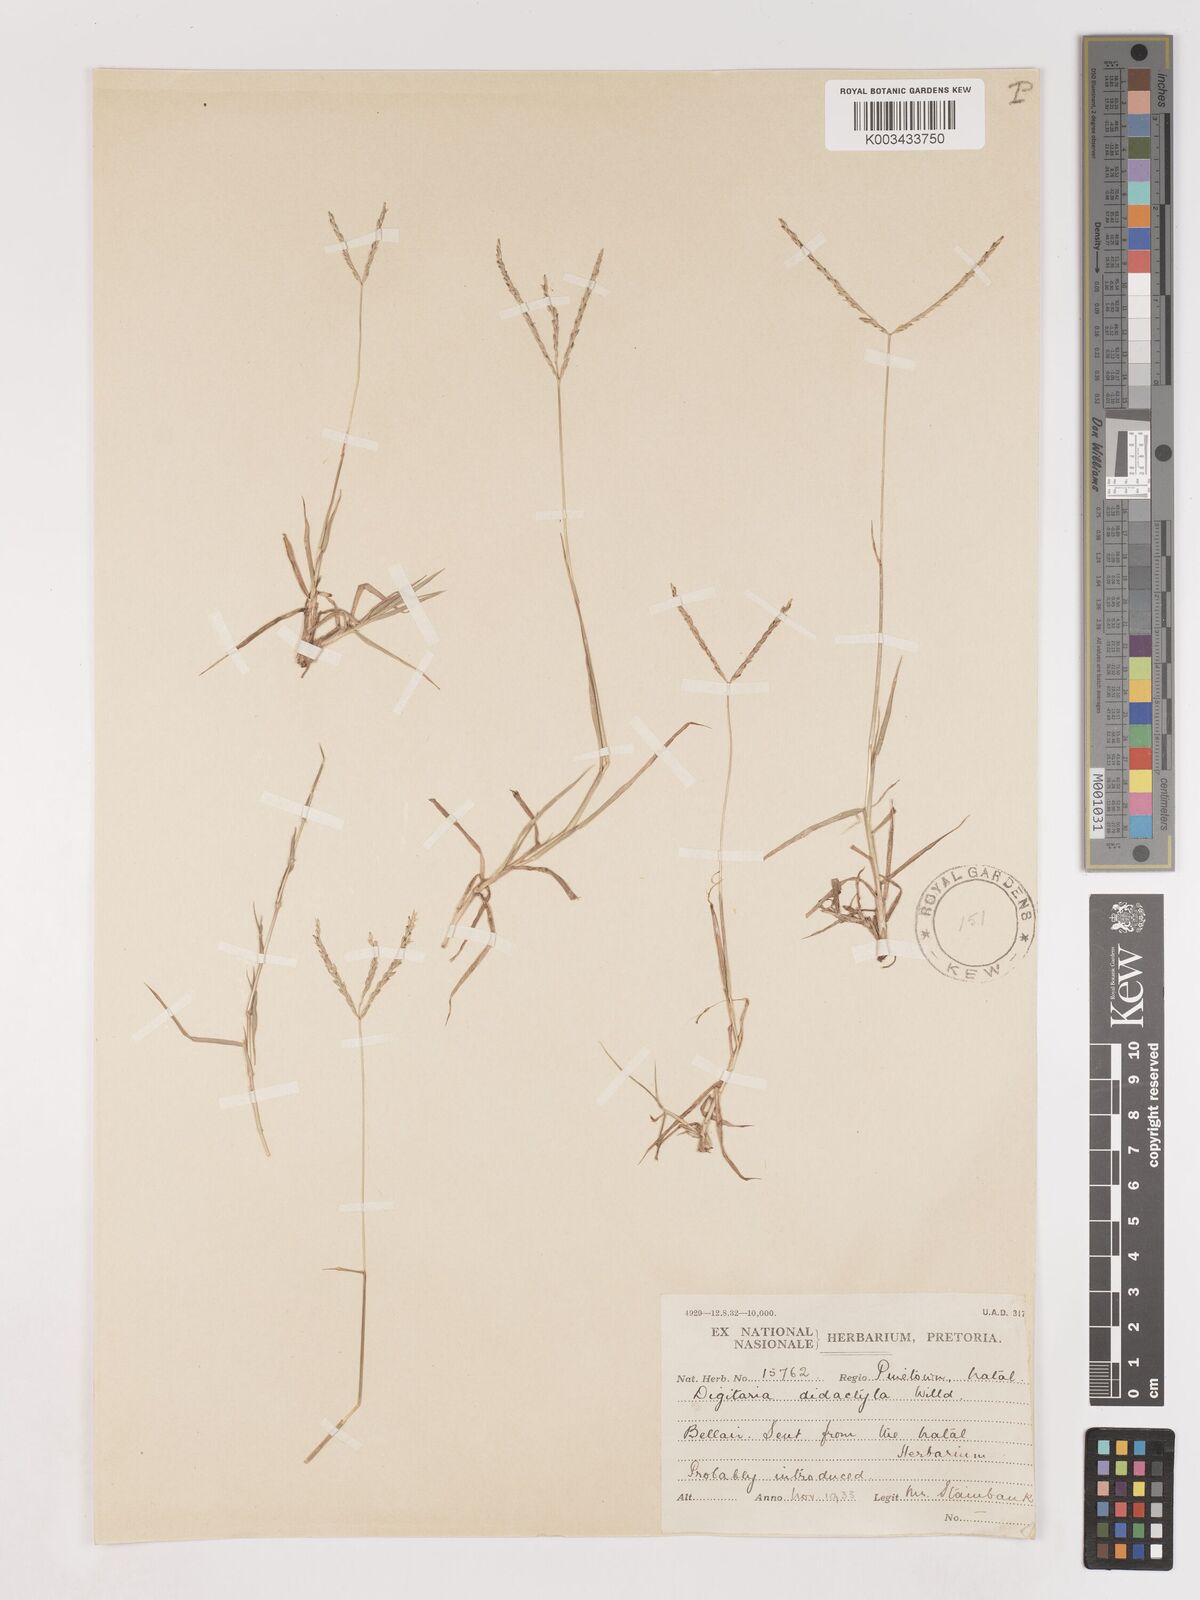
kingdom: Plantae
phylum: Tracheophyta
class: Liliopsida
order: Poales
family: Poaceae
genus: Digitaria
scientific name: Digitaria didactyla
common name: Blue couch
